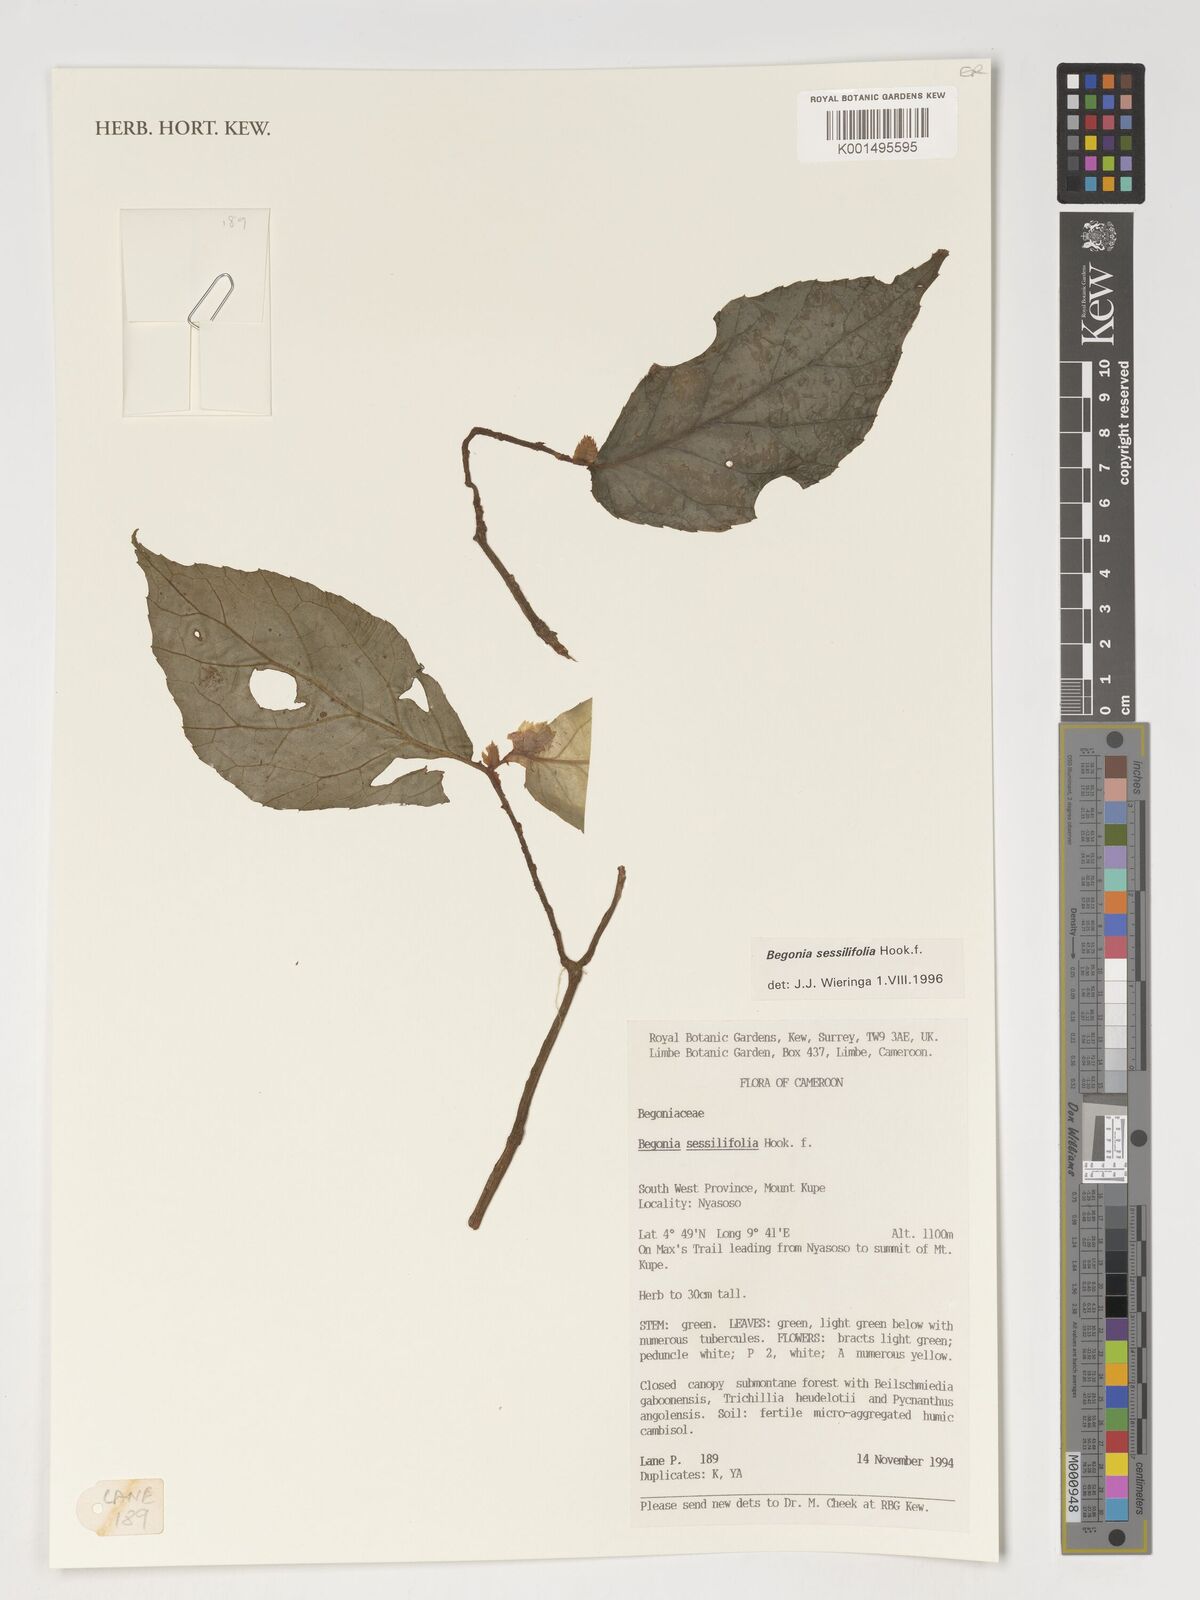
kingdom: Plantae
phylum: Tracheophyta
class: Magnoliopsida
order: Cucurbitales
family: Begoniaceae
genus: Begonia
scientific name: Begonia sessilifolia
